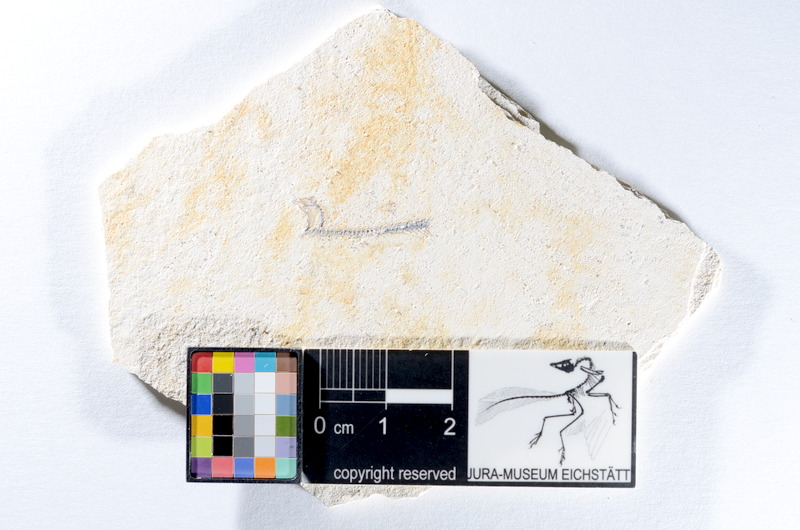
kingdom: Animalia
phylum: Chordata
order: Salmoniformes
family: Orthogonikleithridae
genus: Orthogonikleithrus
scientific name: Orthogonikleithrus hoelli
